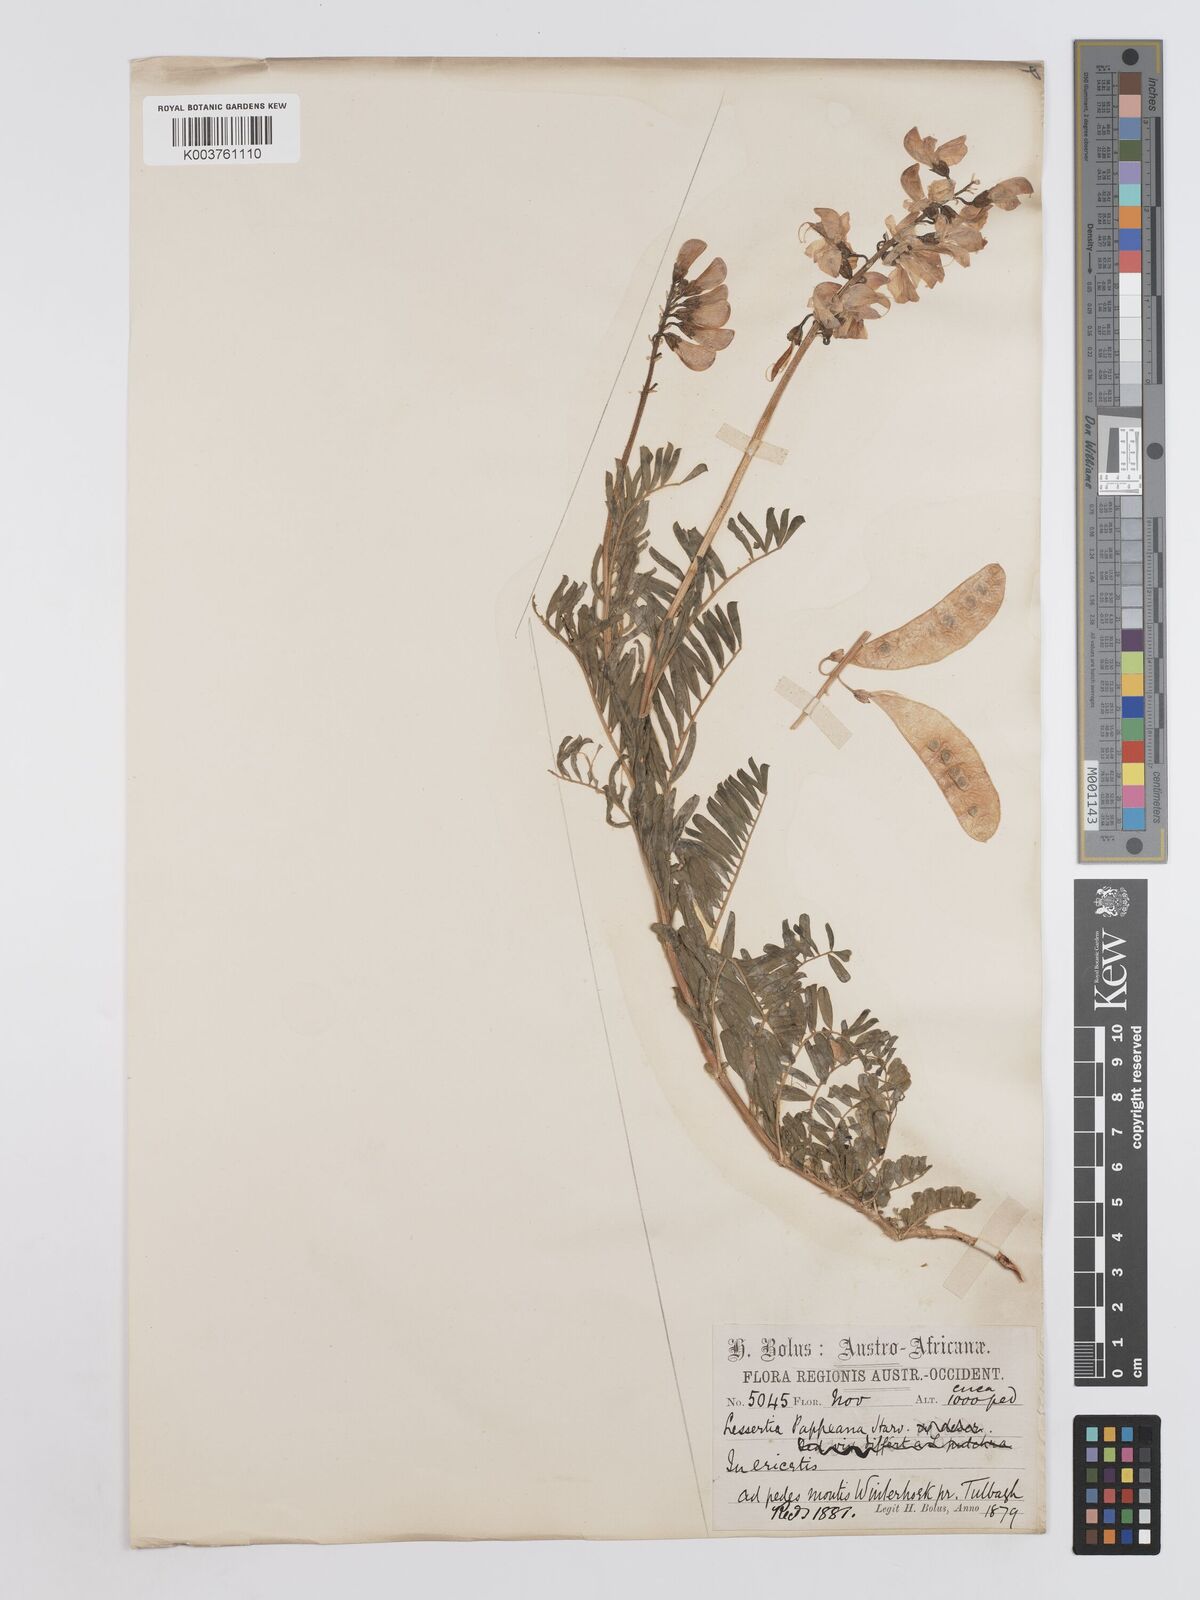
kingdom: Plantae
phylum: Tracheophyta
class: Magnoliopsida
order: Fabales
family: Fabaceae
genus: Lessertia
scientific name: Lessertia pappeana
